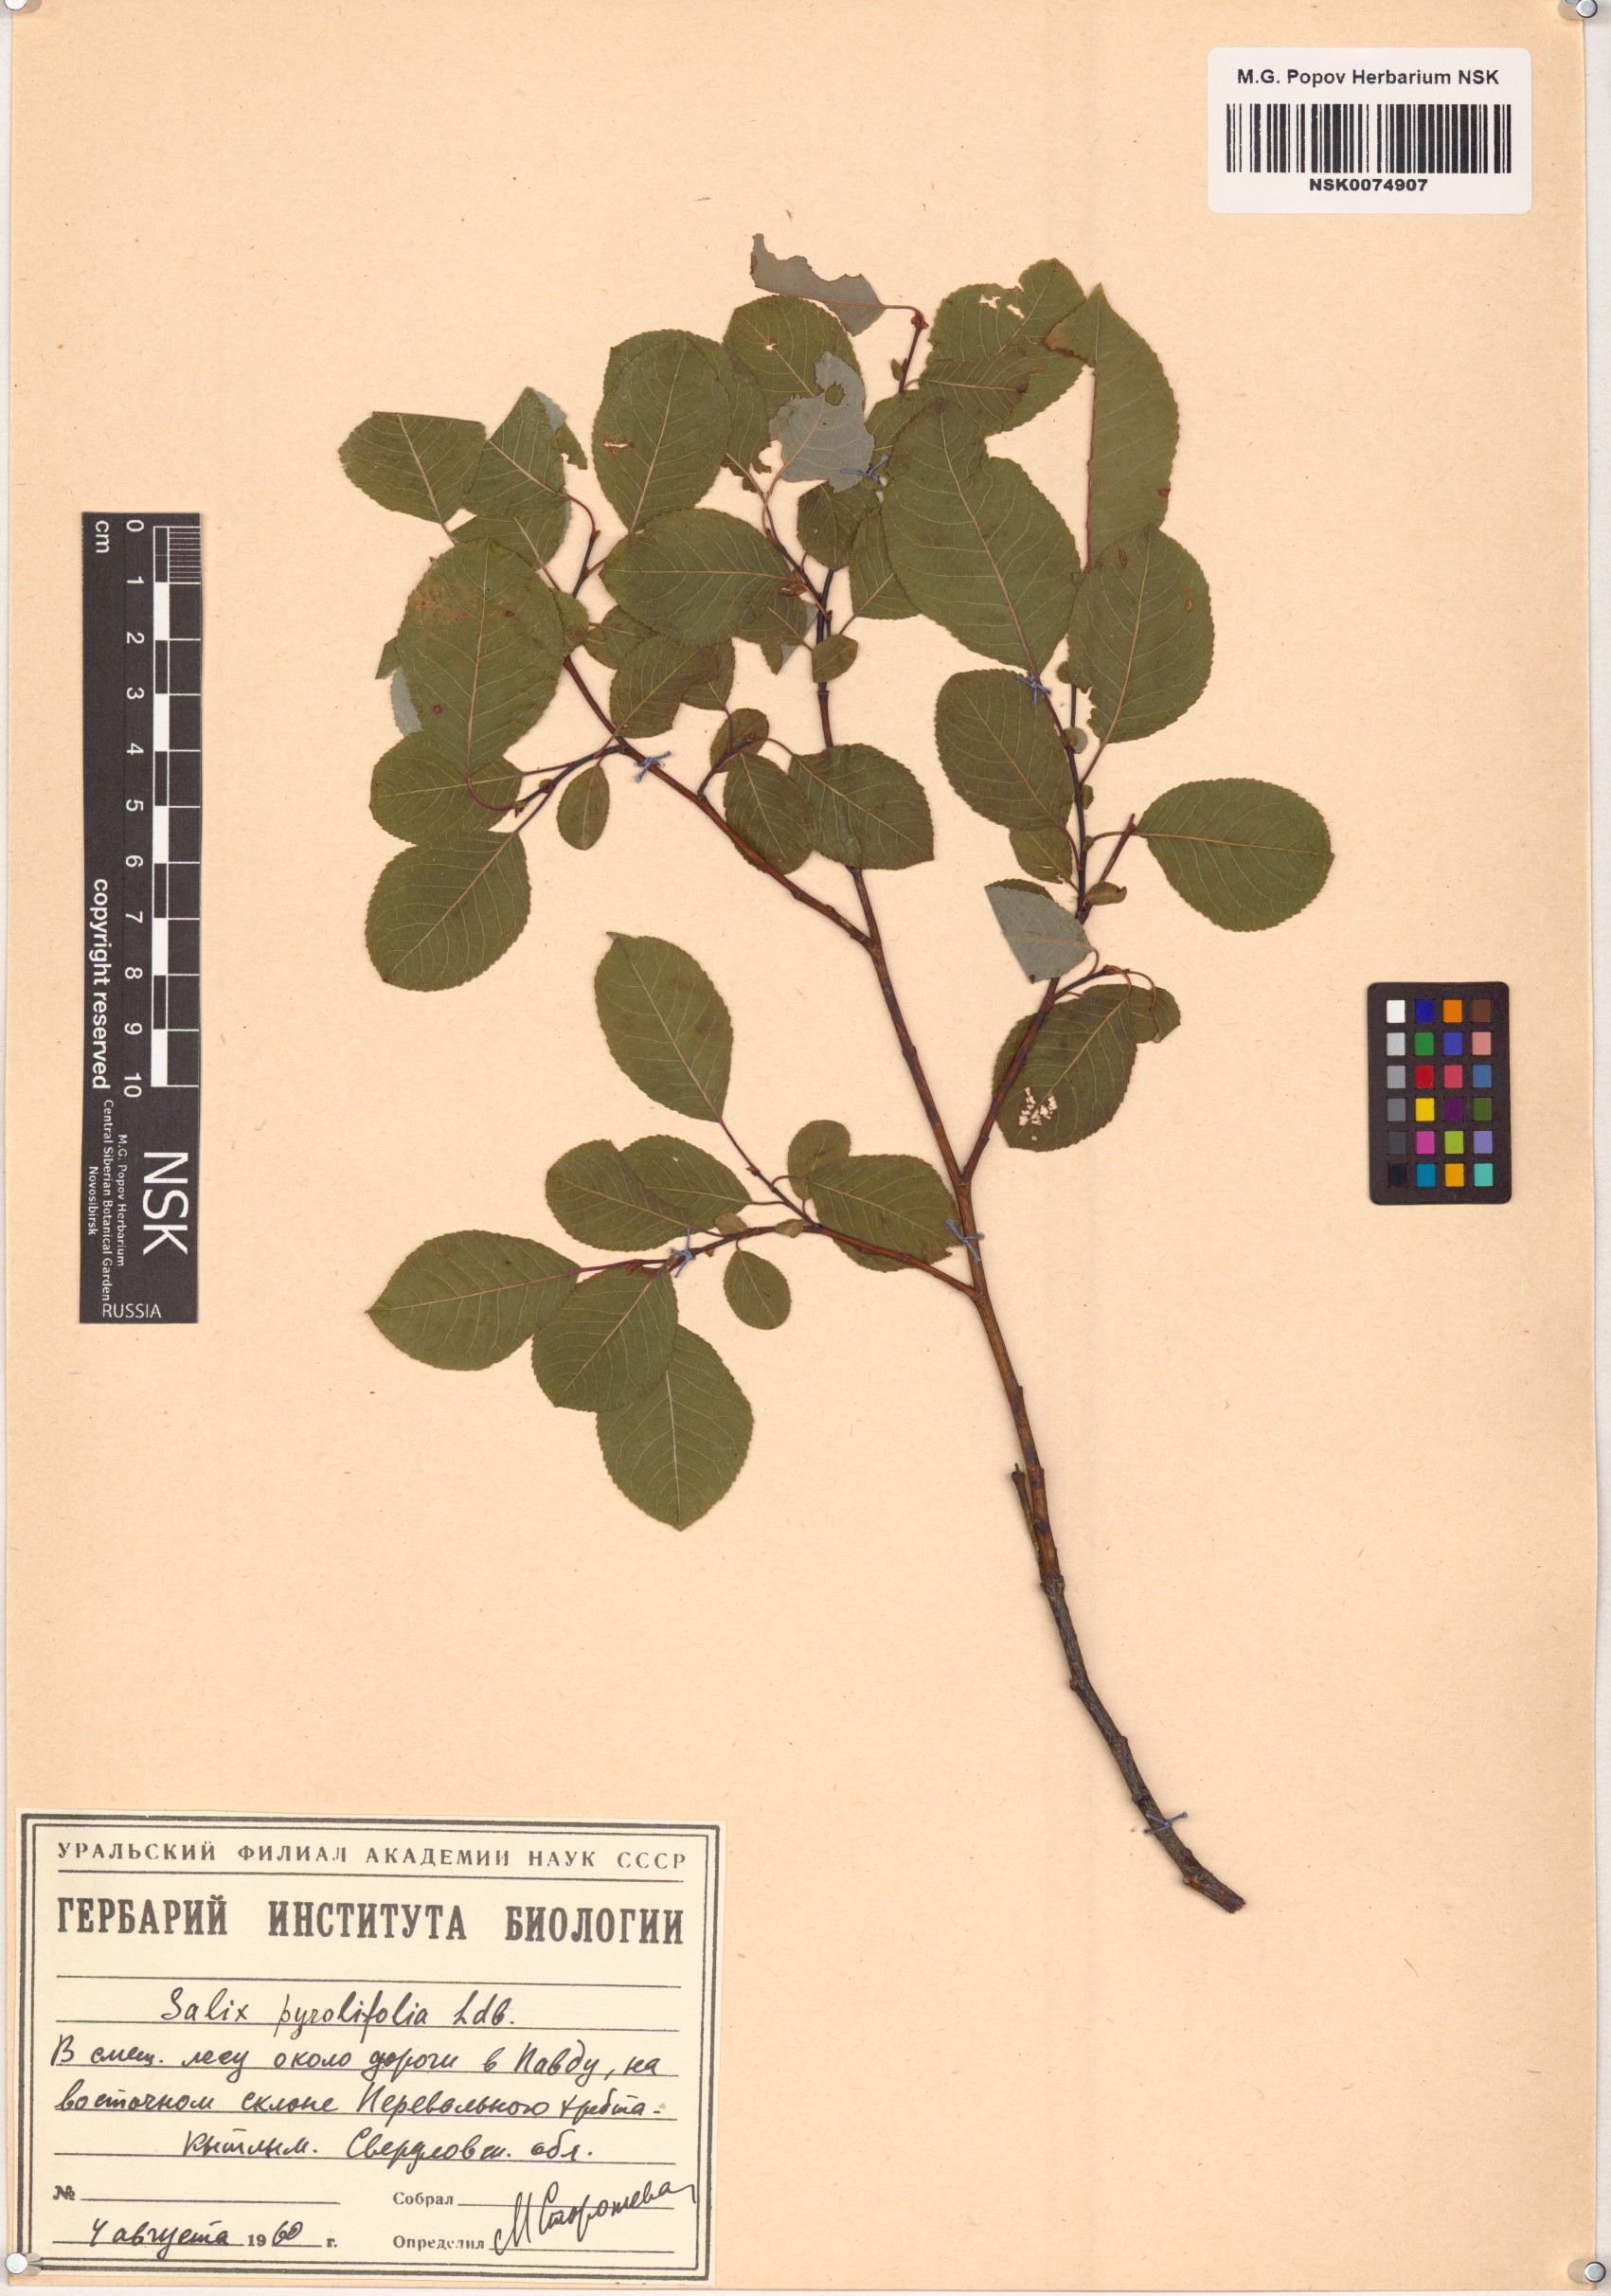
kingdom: Plantae
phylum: Tracheophyta
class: Magnoliopsida
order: Malpighiales
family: Salicaceae
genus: Salix
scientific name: Salix pyrolifolia
